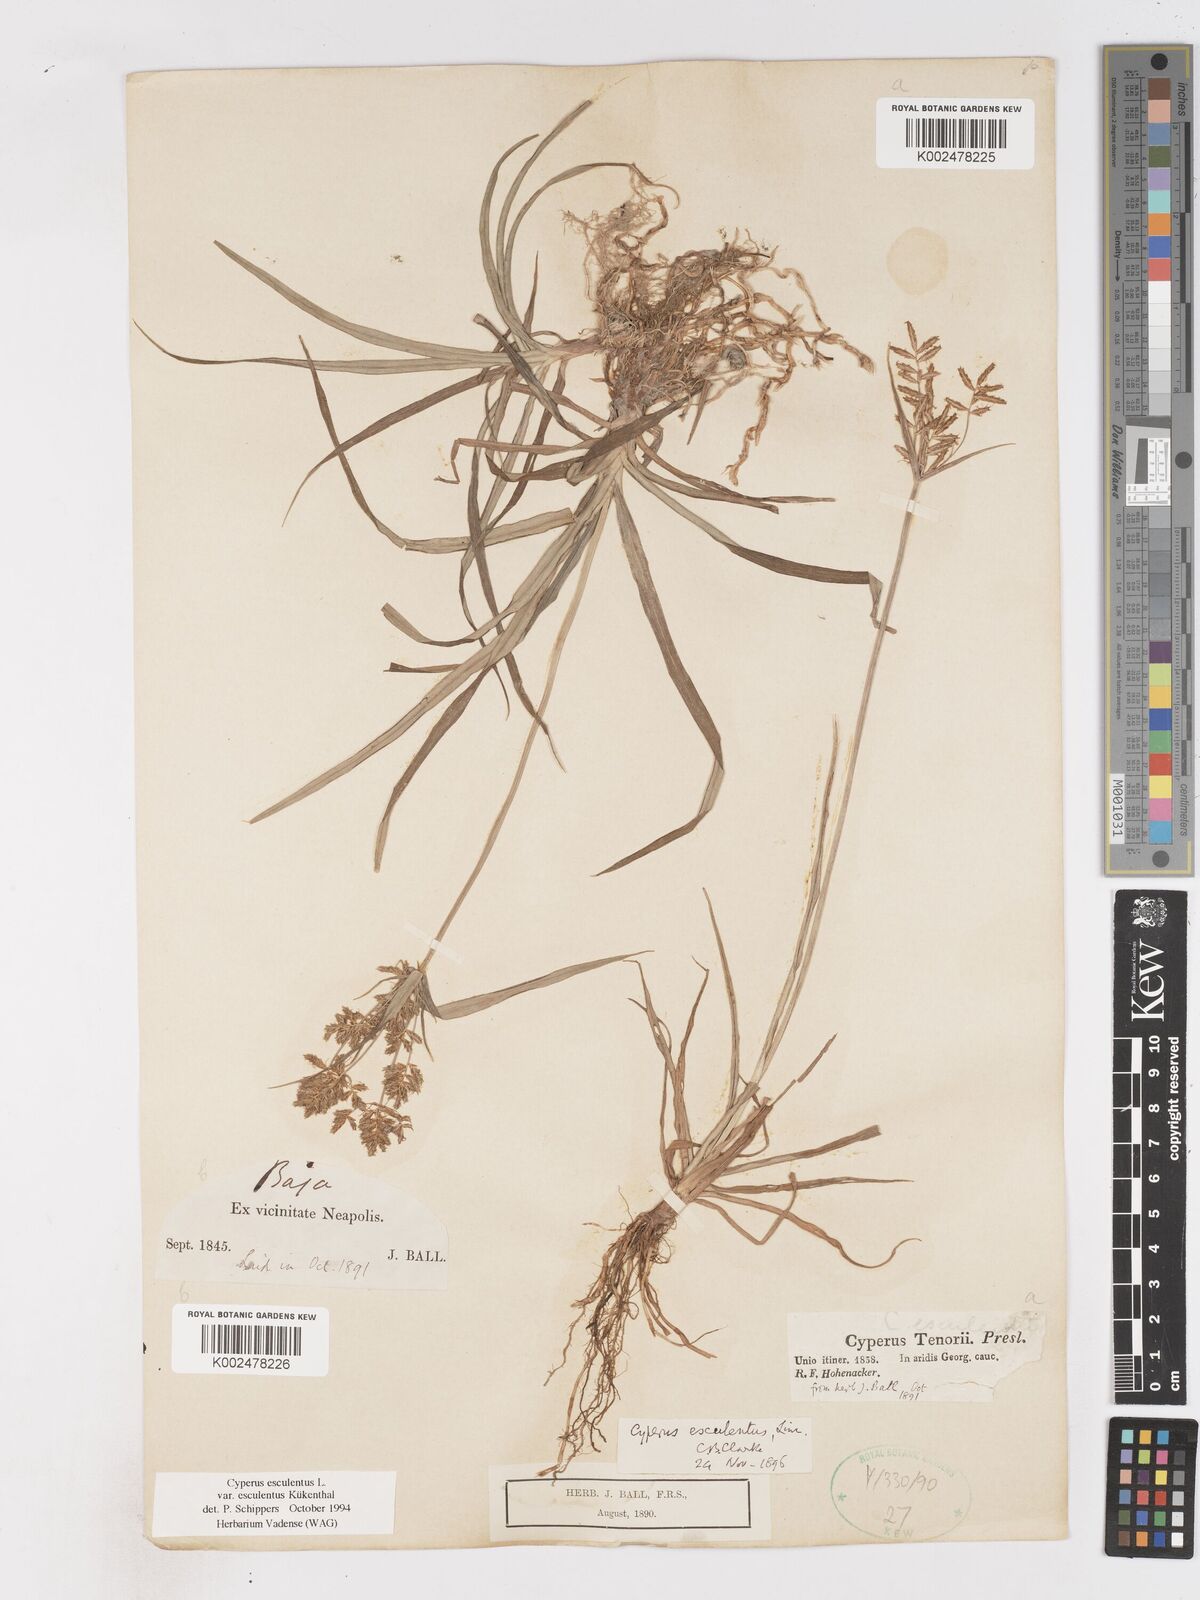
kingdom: Plantae
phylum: Tracheophyta
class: Liliopsida
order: Poales
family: Cyperaceae
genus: Cyperus
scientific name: Cyperus esculentus
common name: Yellow nutsedge
